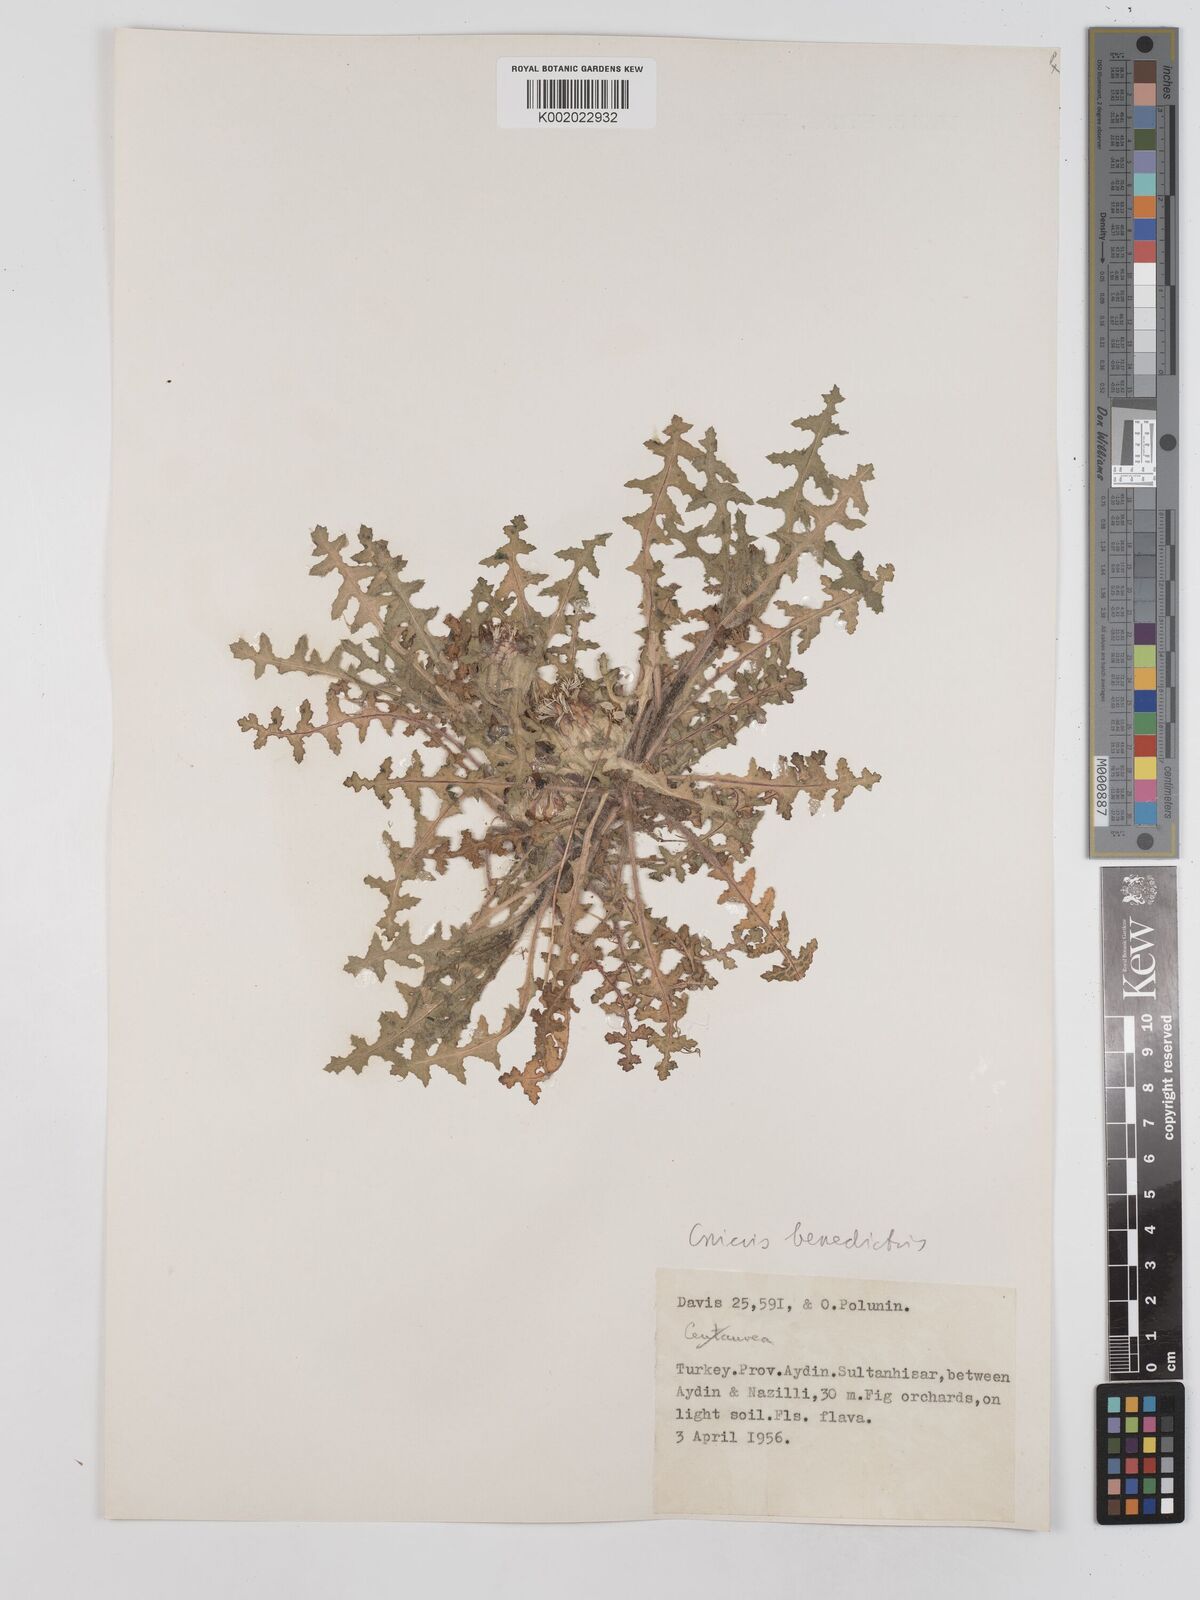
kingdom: Plantae
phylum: Tracheophyta
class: Magnoliopsida
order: Asterales
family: Asteraceae
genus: Centaurea
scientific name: Centaurea benedicta
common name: Blessed thistle
